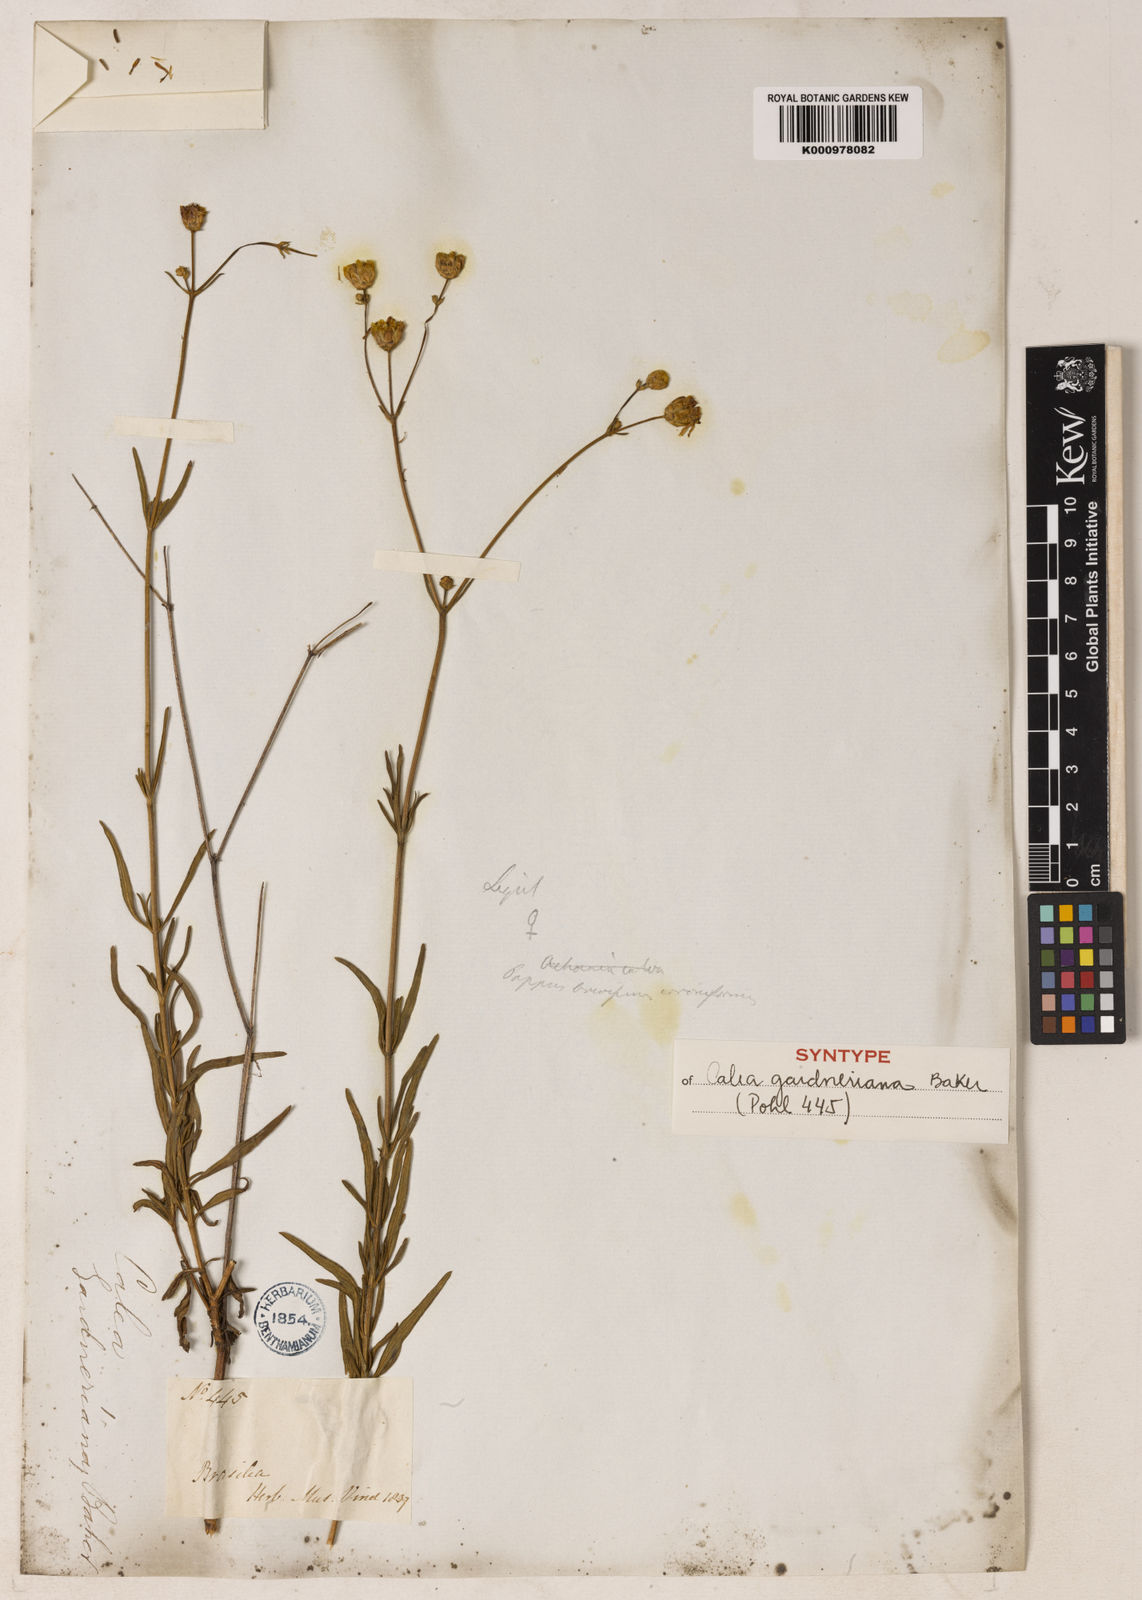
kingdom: Plantae
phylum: Tracheophyta
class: Magnoliopsida
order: Asterales
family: Asteraceae
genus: Calea
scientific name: Calea gardneriana
